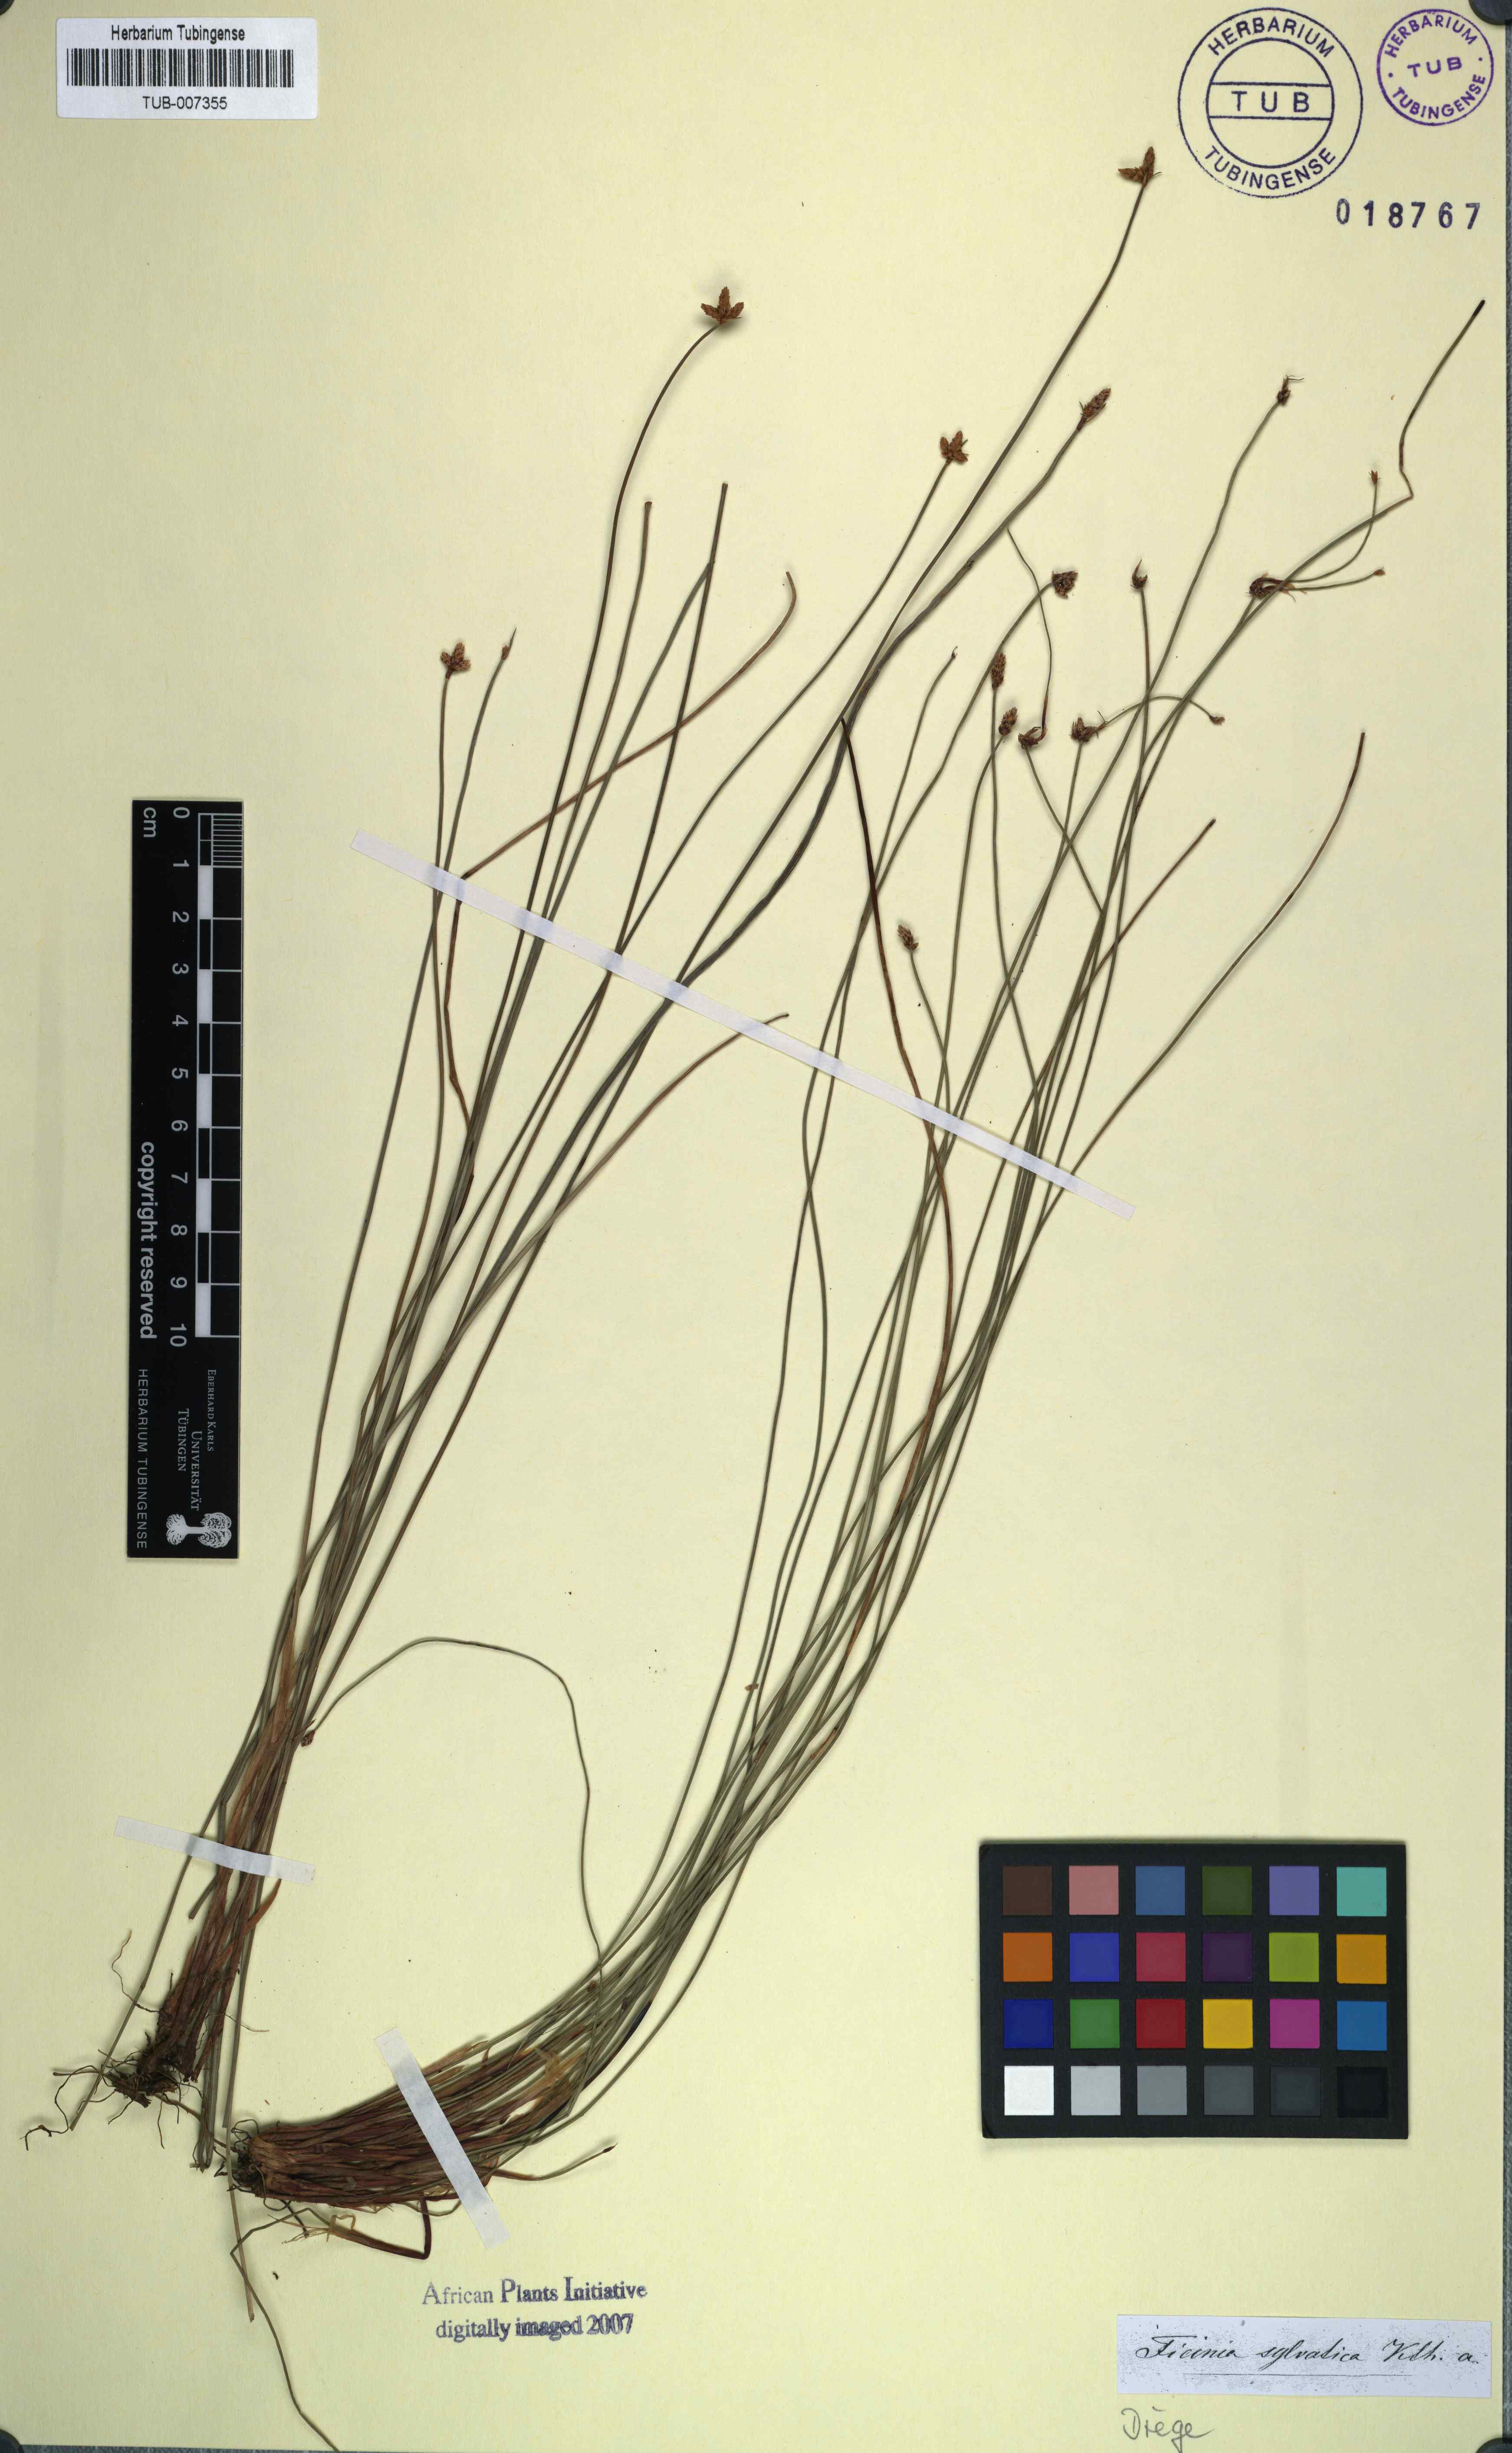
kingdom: Plantae
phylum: Tracheophyta
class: Liliopsida
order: Poales
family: Cyperaceae
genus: Ficinia
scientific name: Ficinia sylvatica
